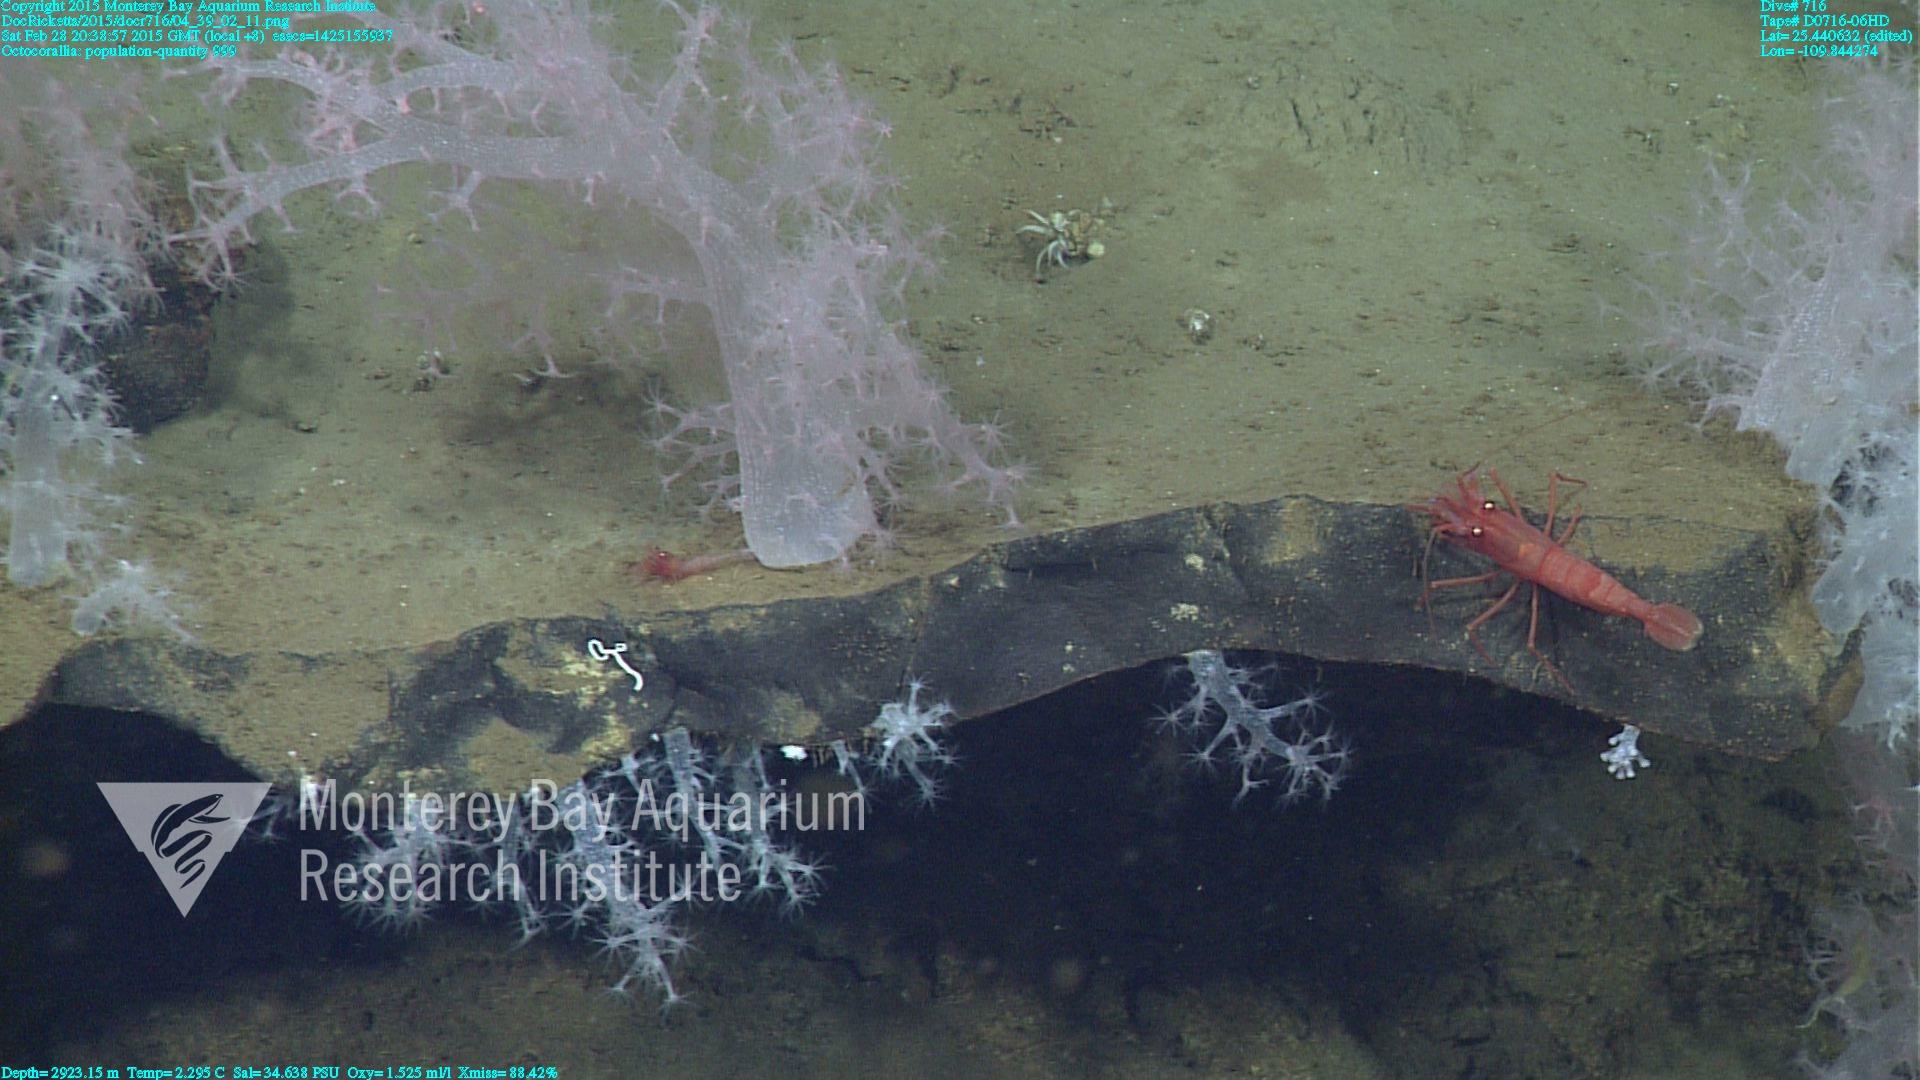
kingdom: Animalia
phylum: Cnidaria
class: Anthozoa
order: Malacalcyonacea
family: Alcyoniidae
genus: Gersemia
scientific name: Gersemia juliepackardae
